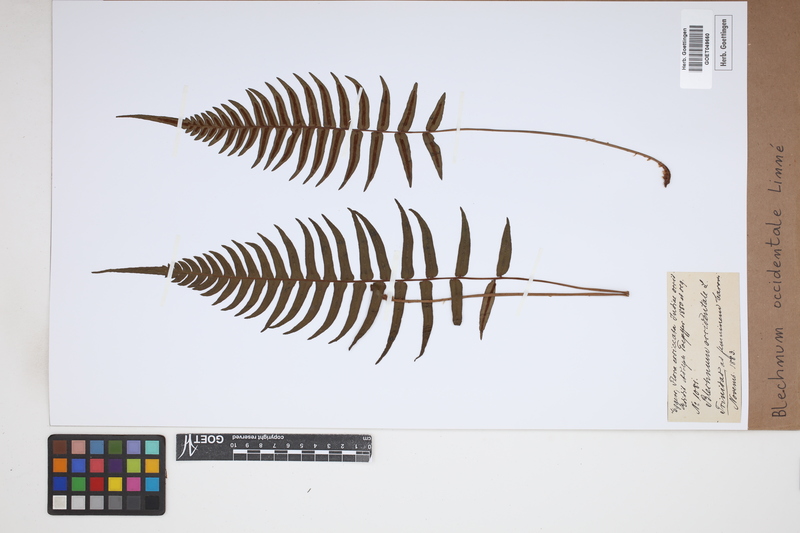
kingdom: Plantae
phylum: Tracheophyta
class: Polypodiopsida
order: Polypodiales
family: Blechnaceae
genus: Blechnum
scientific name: Blechnum occidentale
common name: Hammock fern
